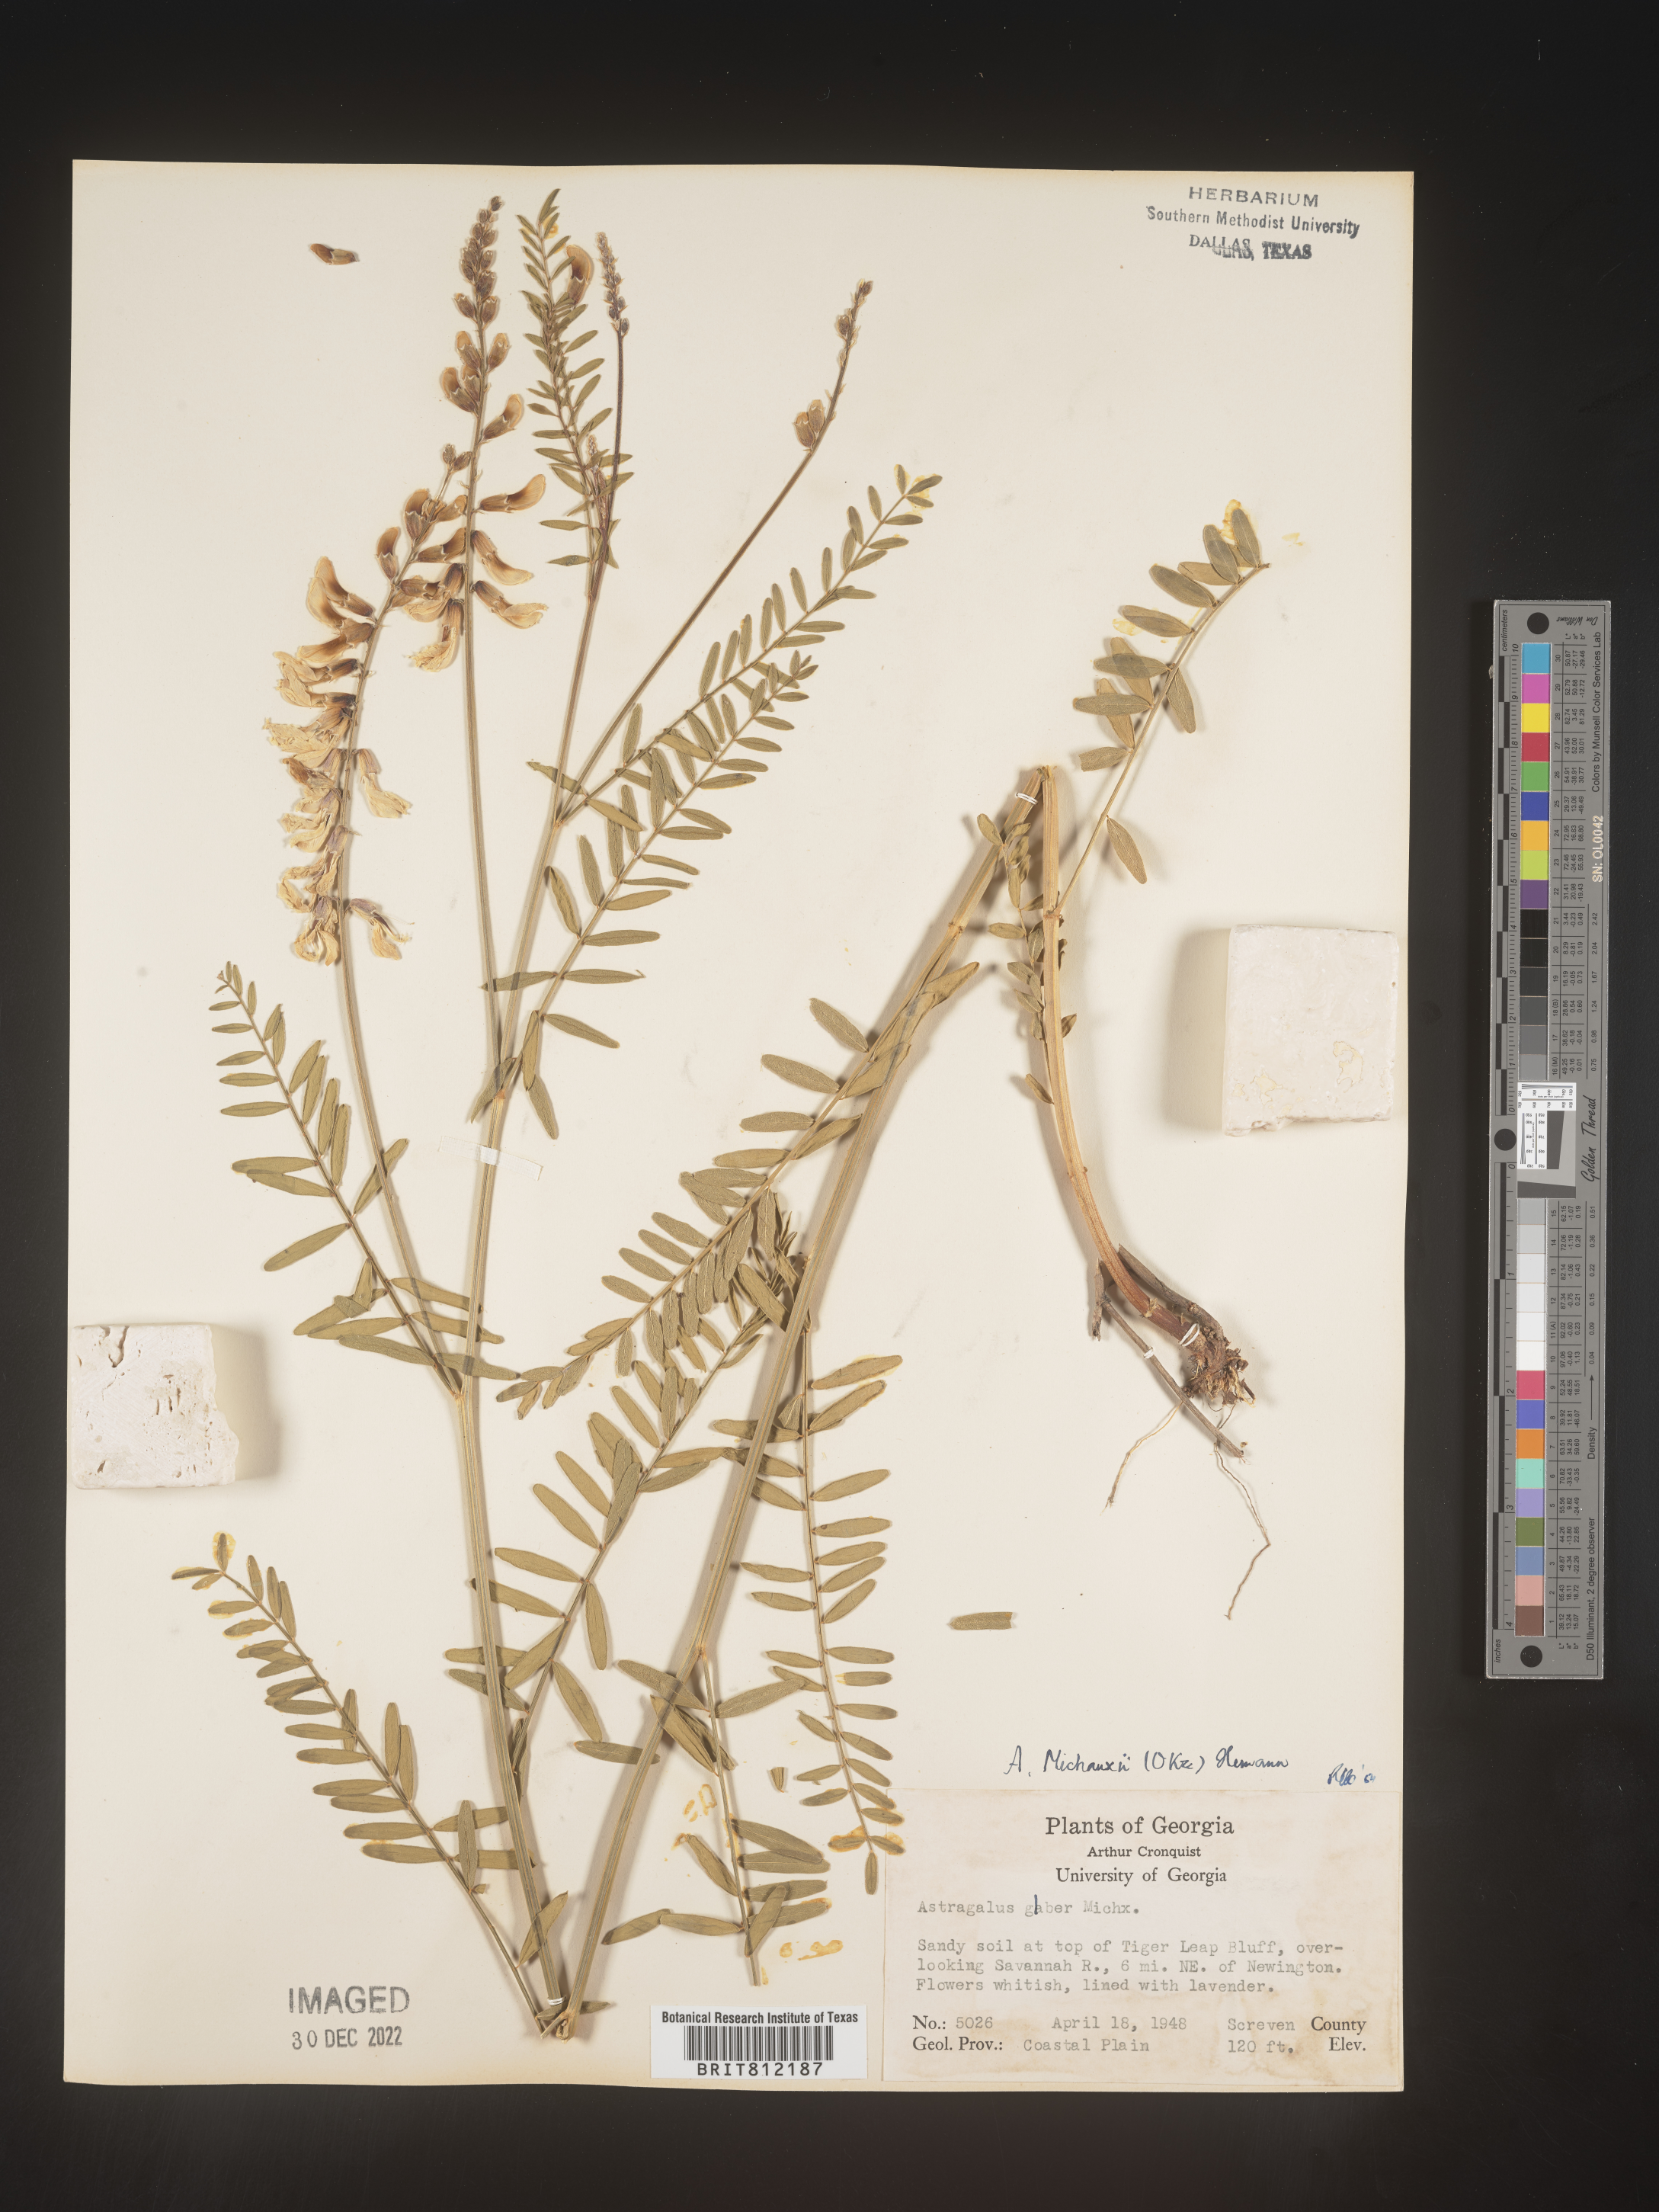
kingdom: Plantae
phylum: Tracheophyta
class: Magnoliopsida
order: Fabales
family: Fabaceae
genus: Astragalus
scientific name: Astragalus michauxii
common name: Michaux milk-vetch
